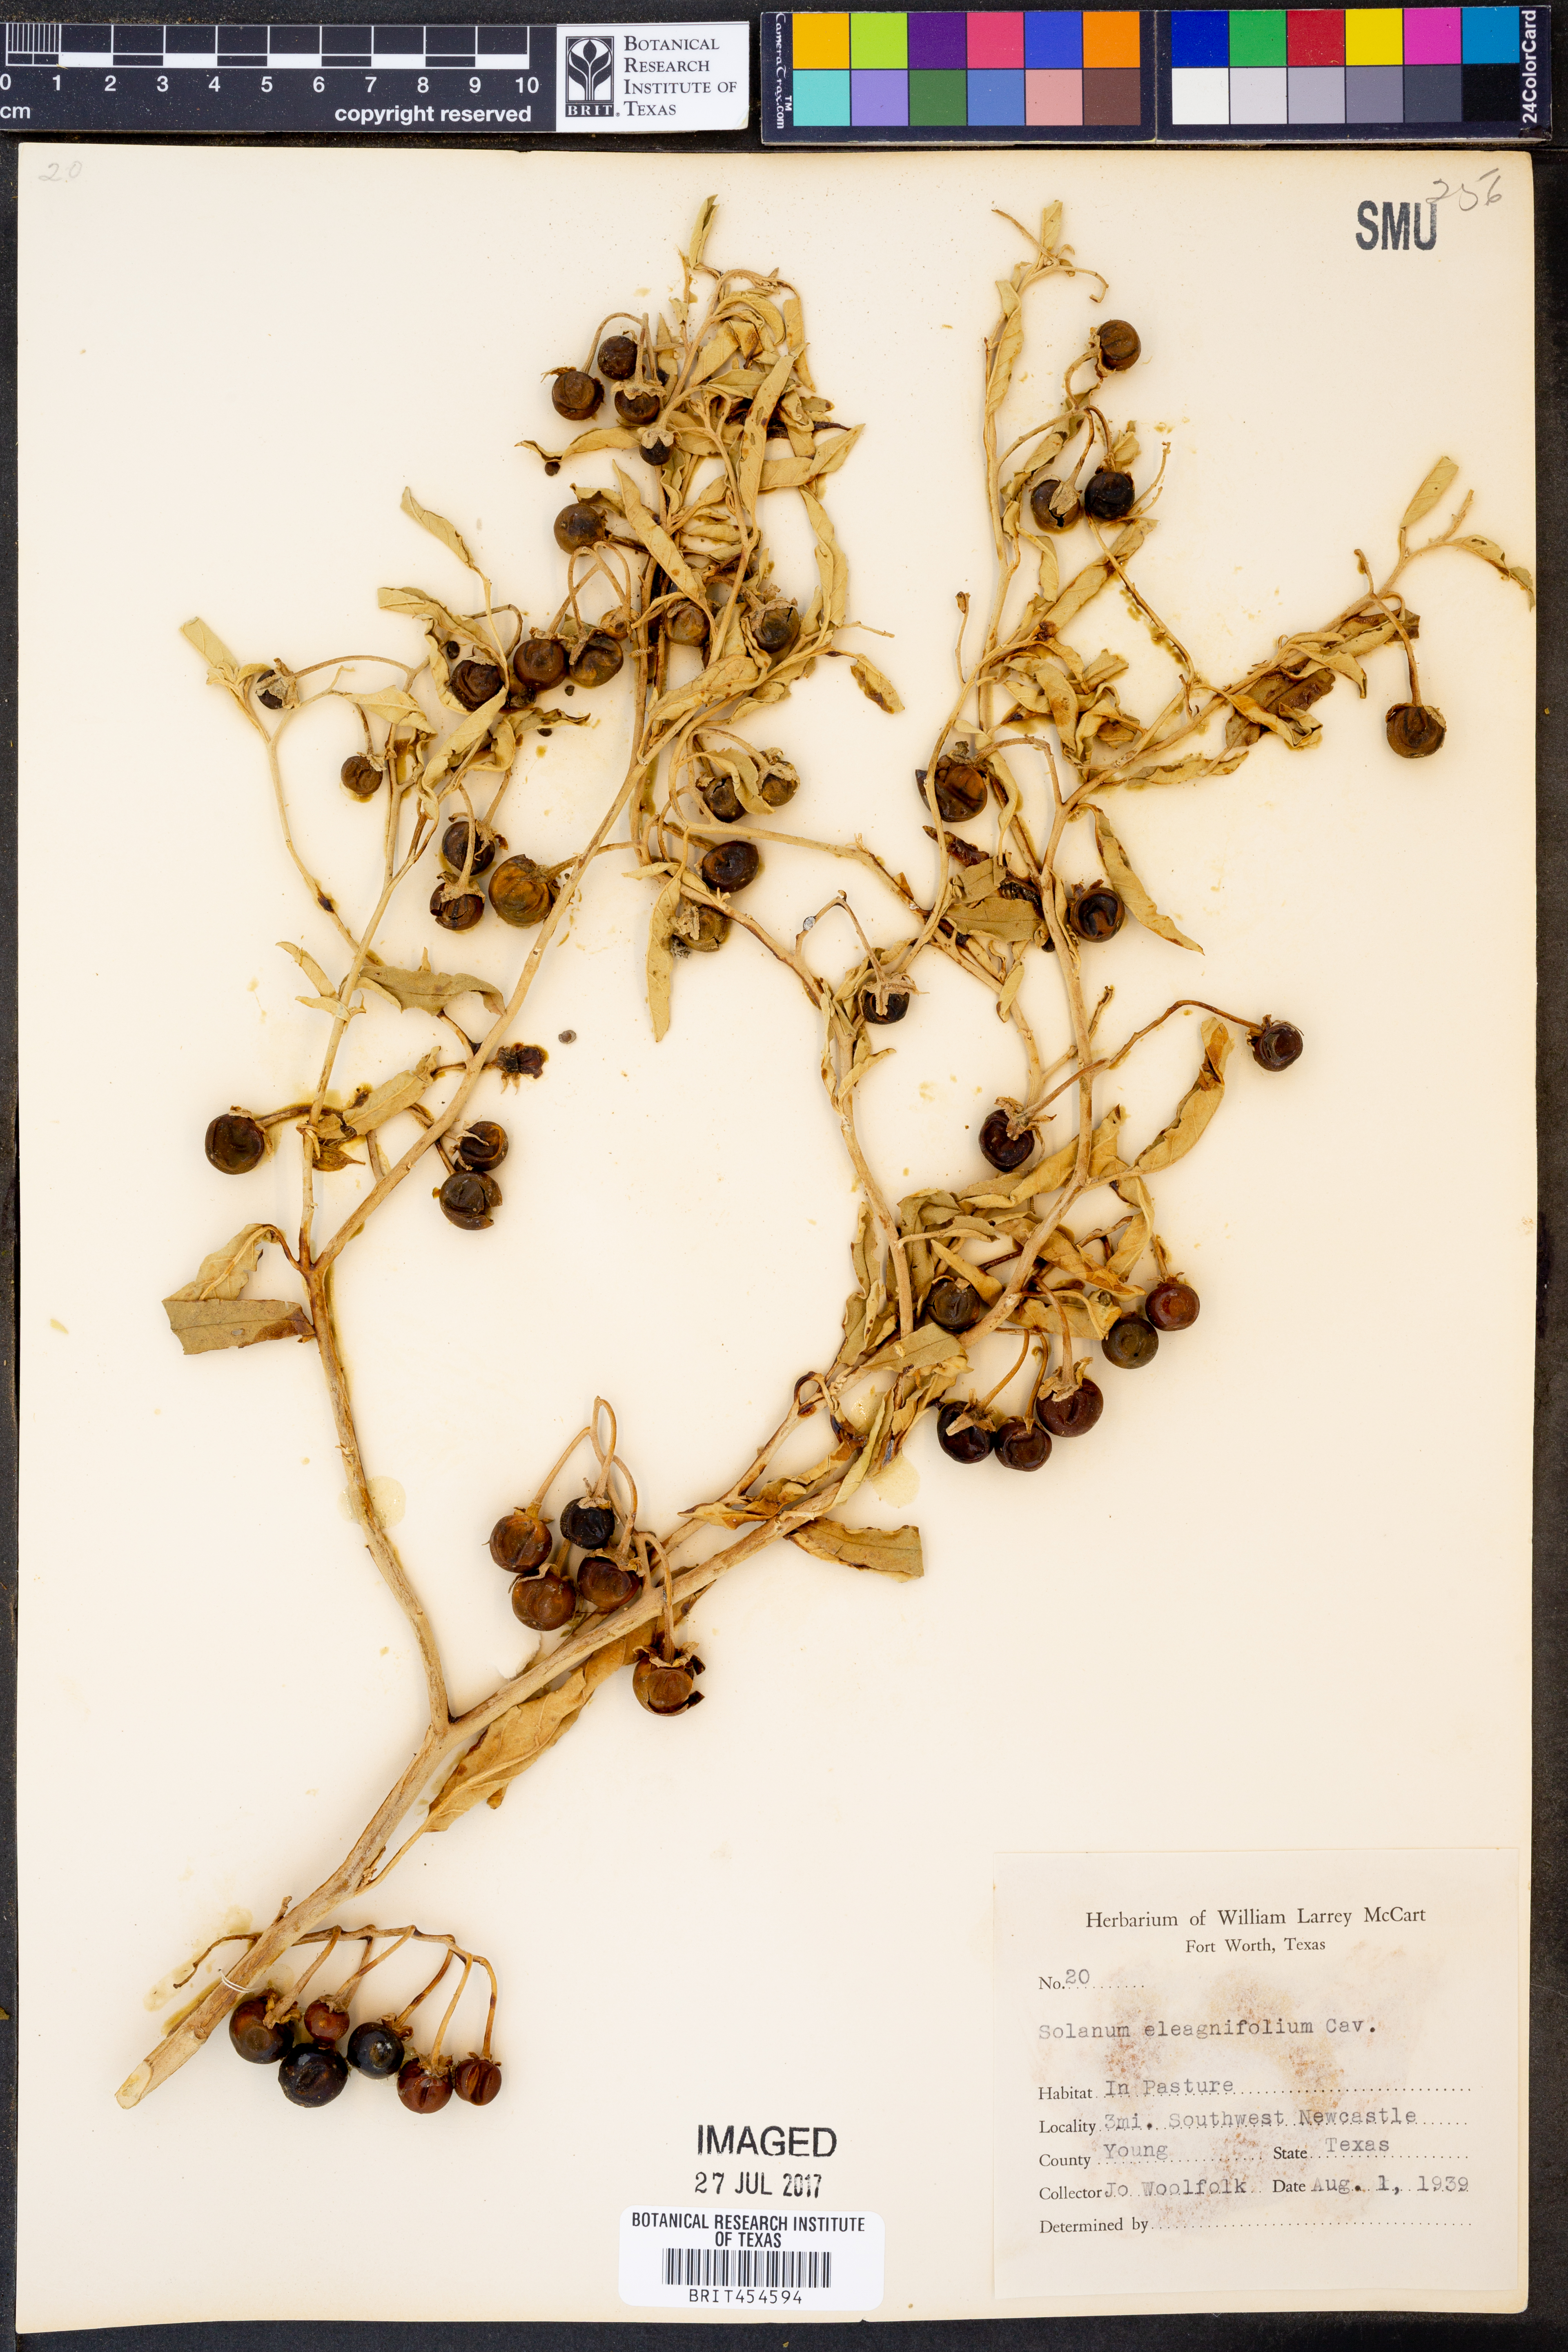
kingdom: Plantae
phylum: Tracheophyta
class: Magnoliopsida
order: Solanales
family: Solanaceae
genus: Solanum
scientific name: Solanum elaeagnifolium
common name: Silverleaf nightshade
